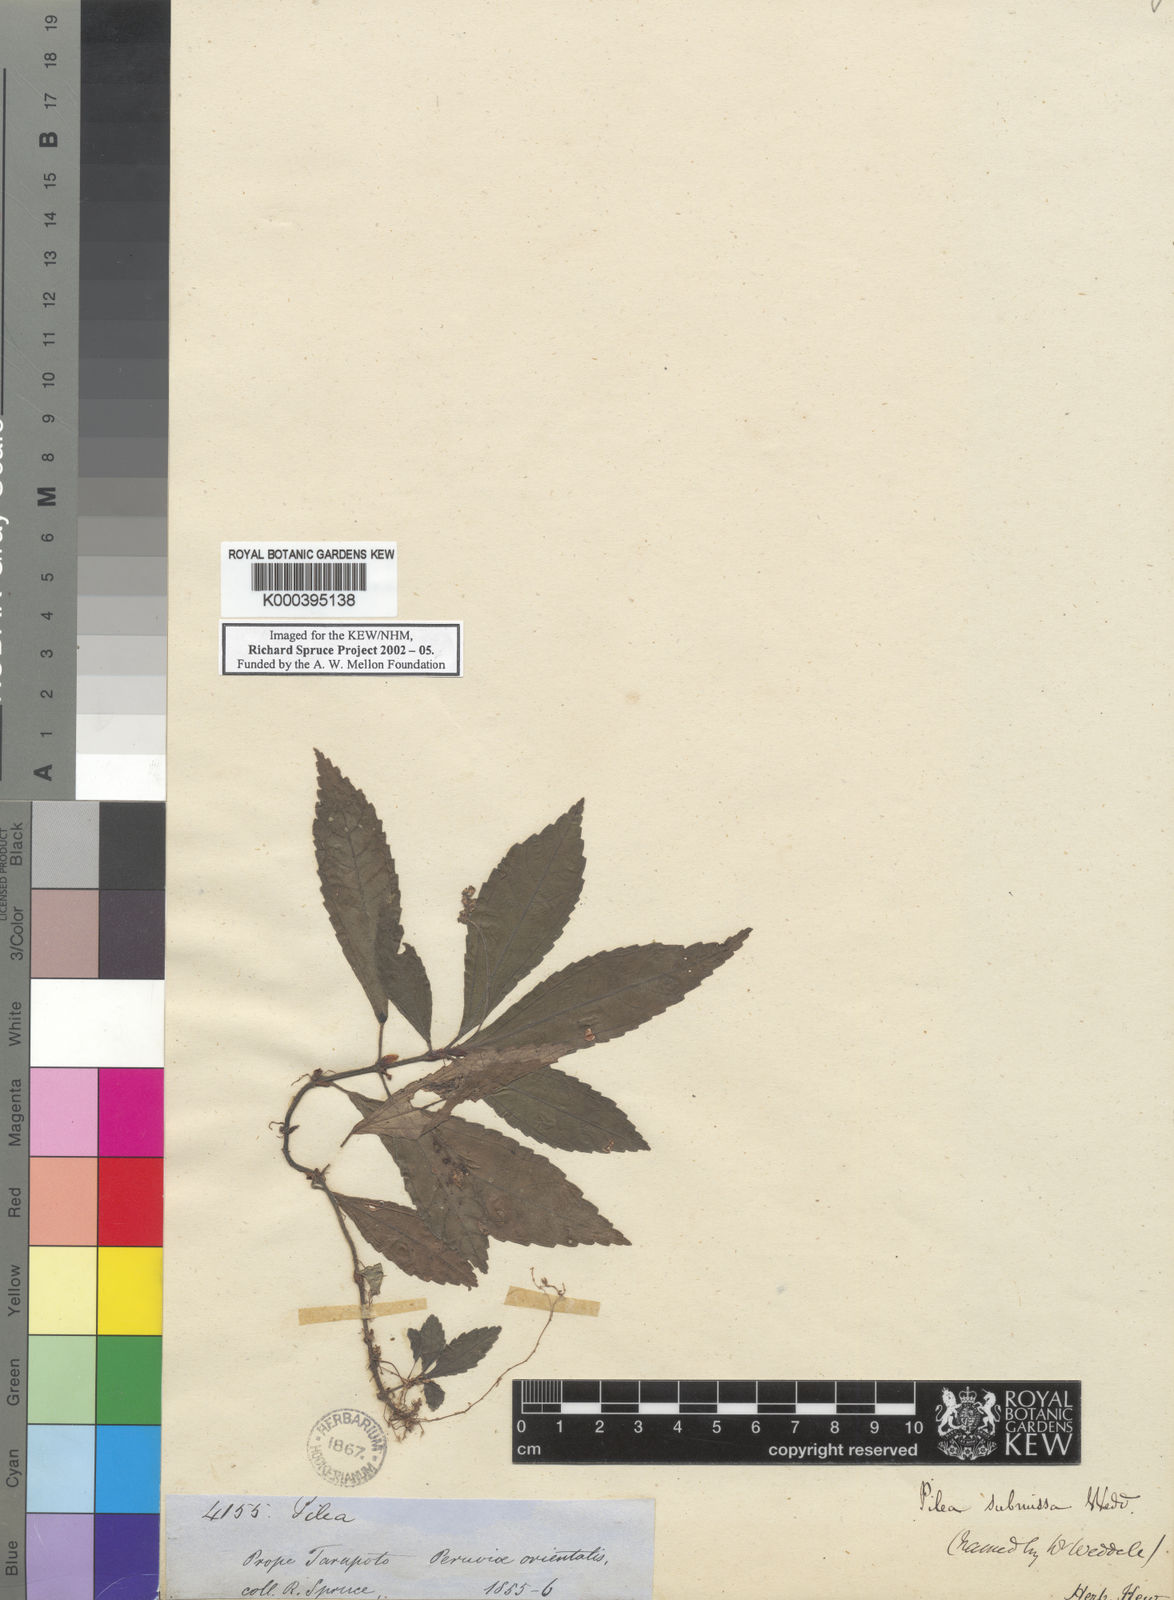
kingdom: Plantae
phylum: Tracheophyta
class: Magnoliopsida
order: Rosales
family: Urticaceae
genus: Pilea
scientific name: Pilea submissa
